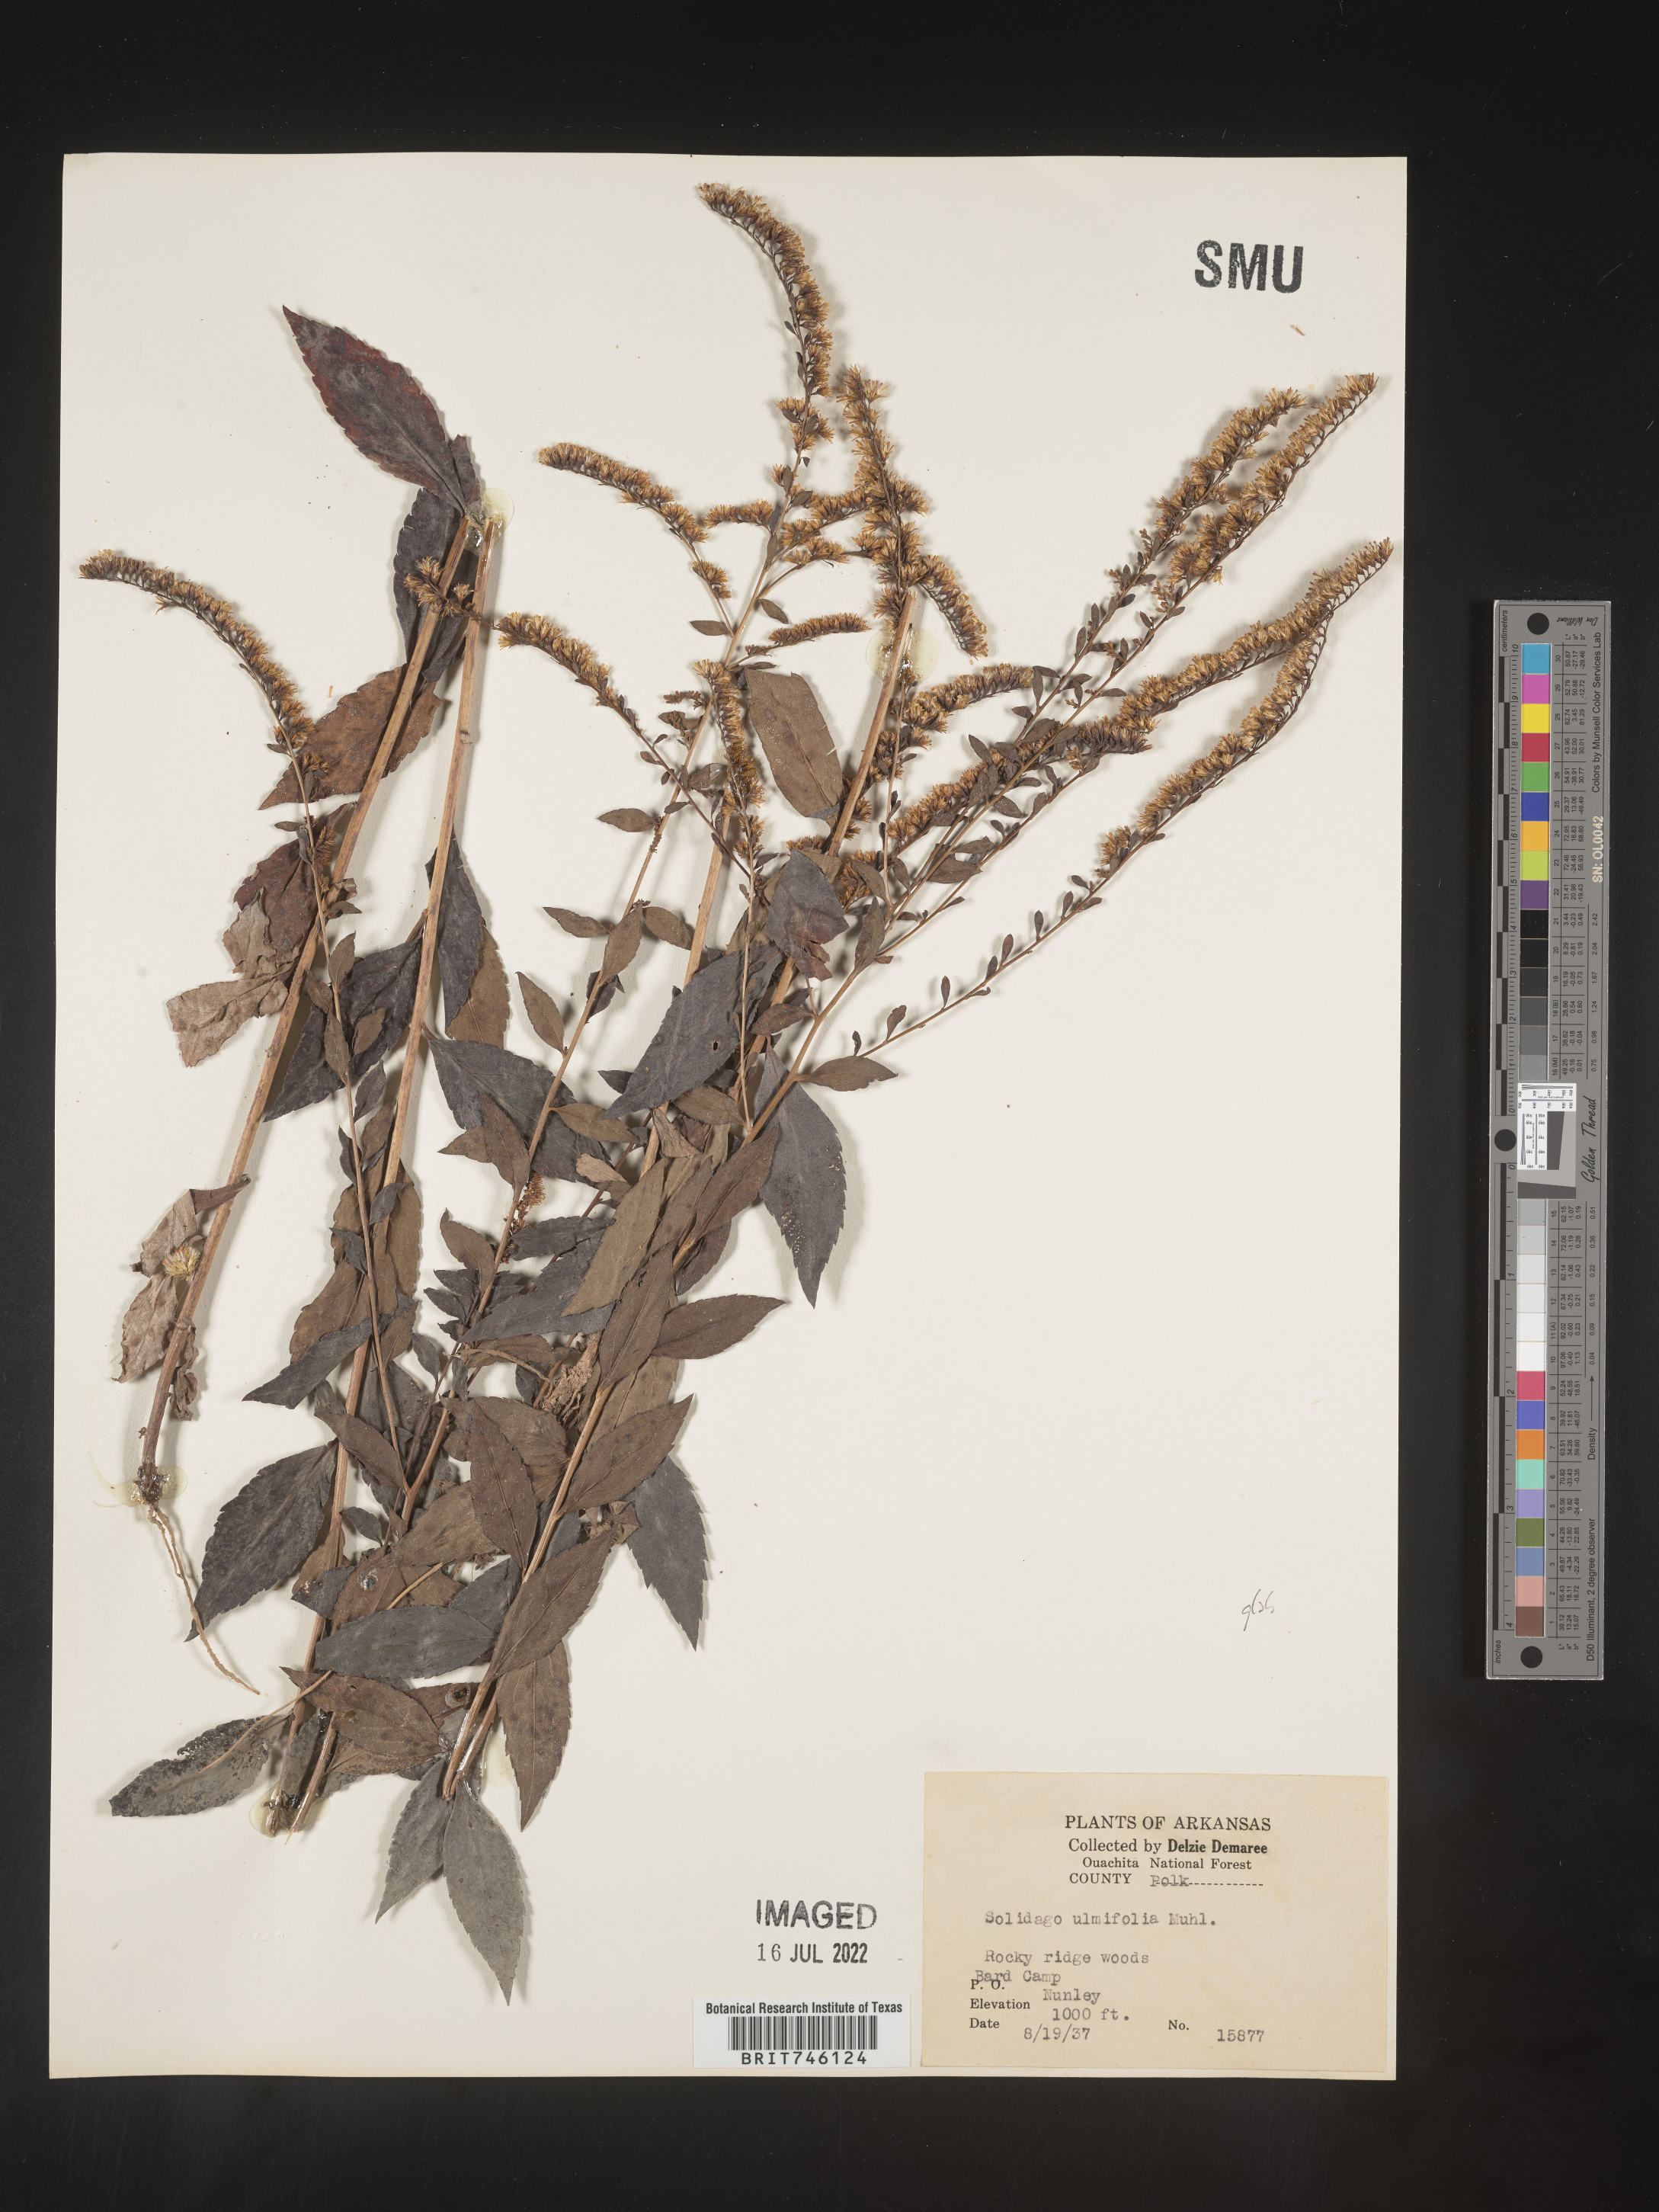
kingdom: Plantae
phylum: Tracheophyta
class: Magnoliopsida
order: Asterales
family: Asteraceae
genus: Solidago
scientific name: Solidago delicatula
